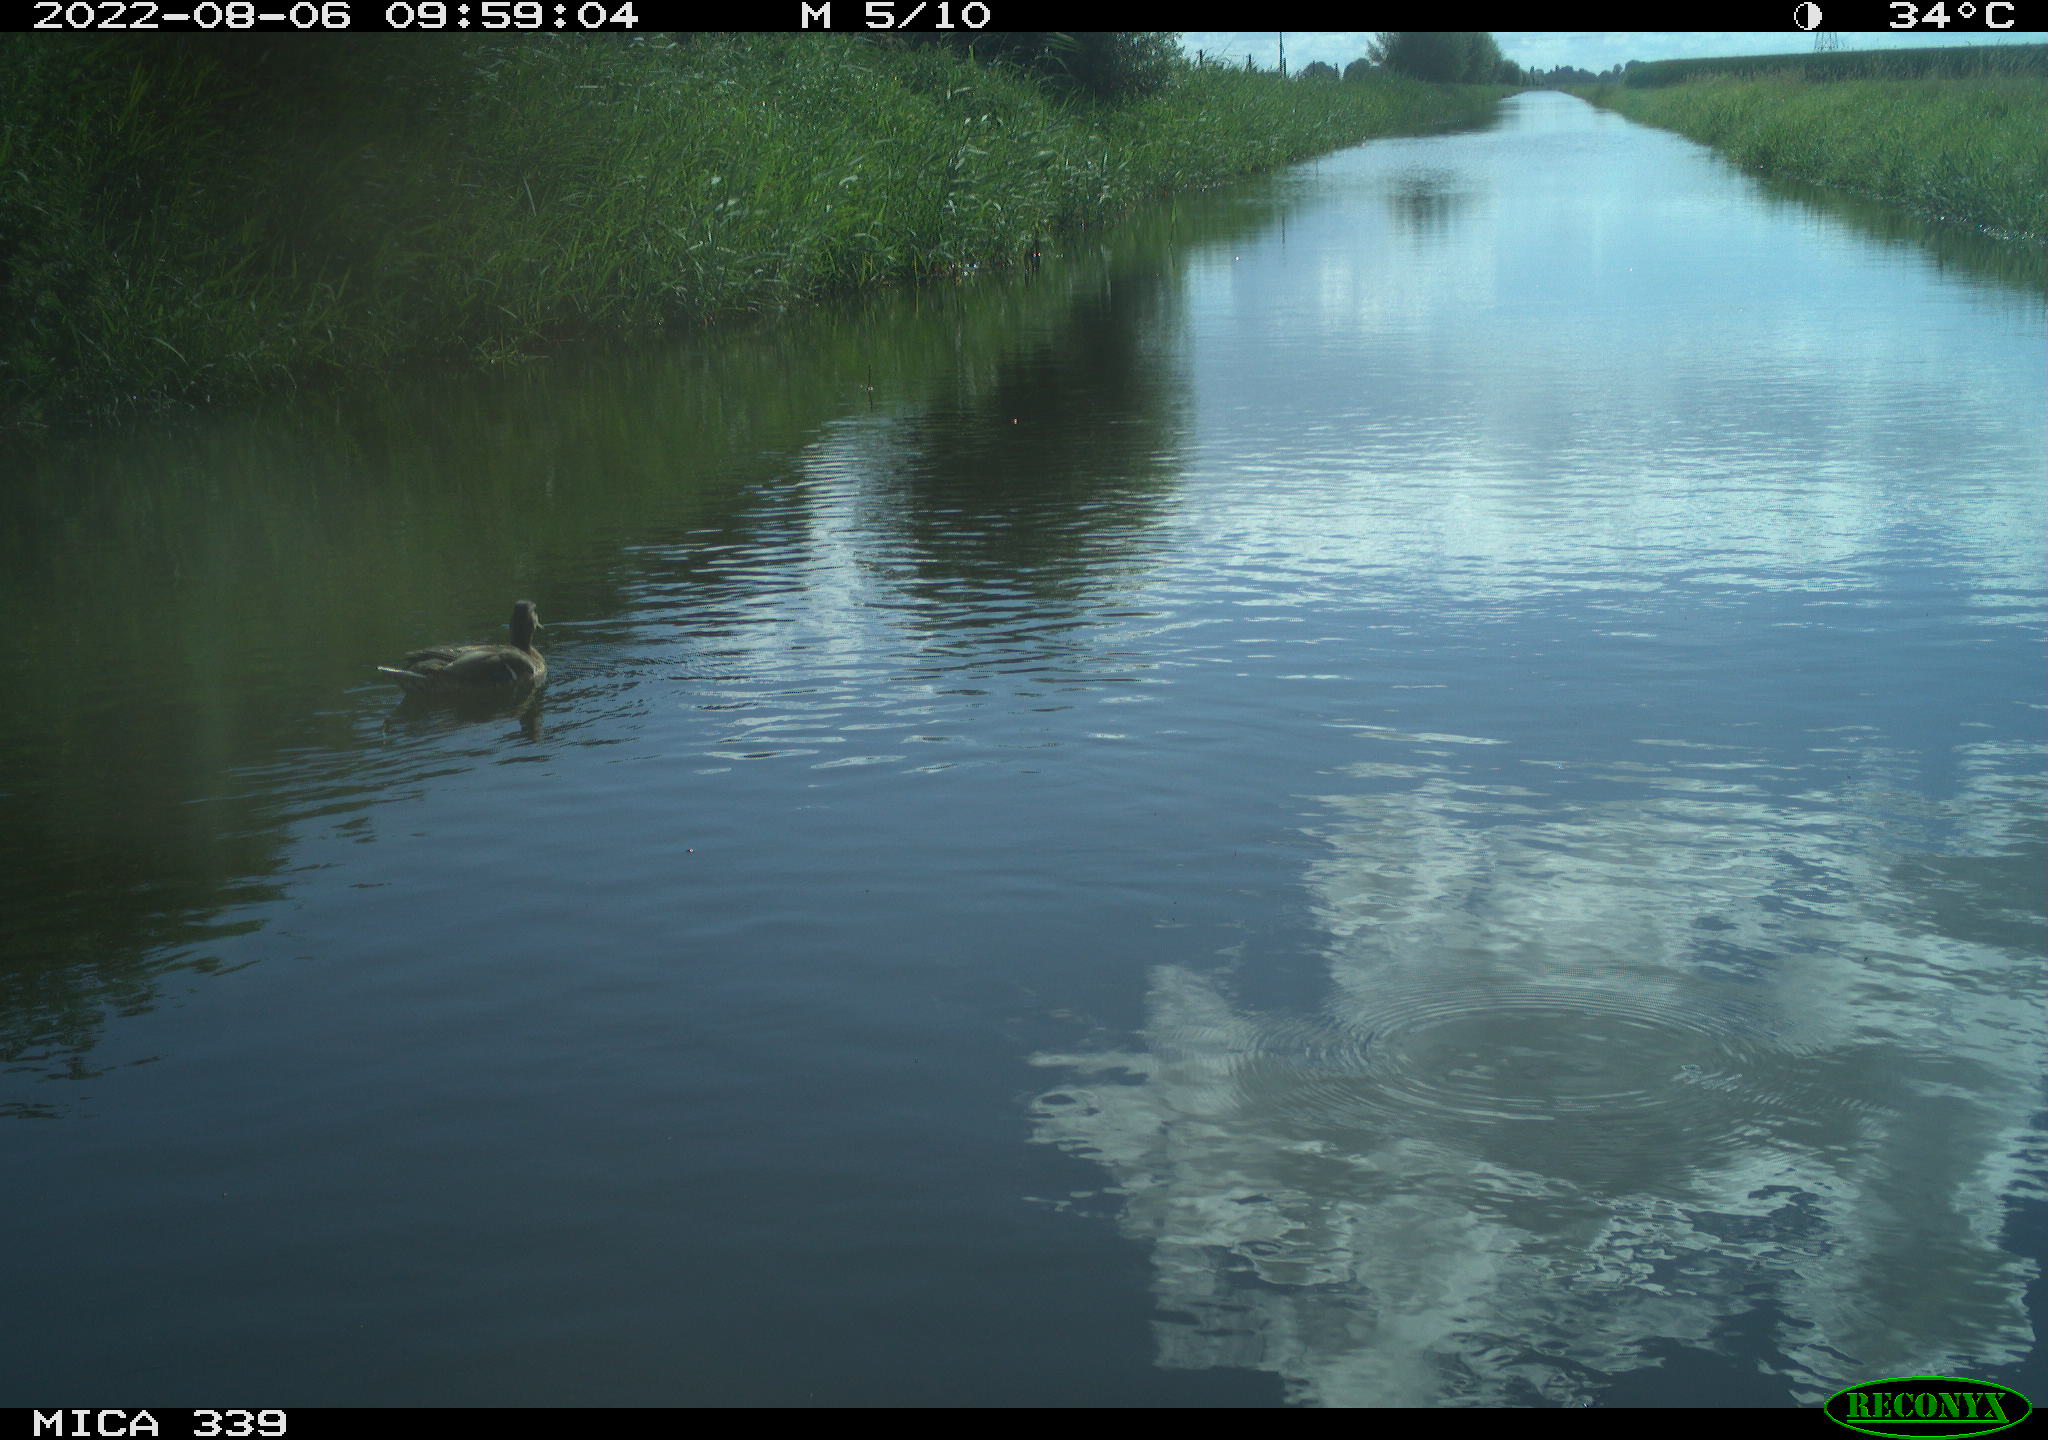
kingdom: Animalia
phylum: Chordata
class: Aves
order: Anseriformes
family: Anatidae
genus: Anas
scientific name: Anas platyrhynchos
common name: Mallard
